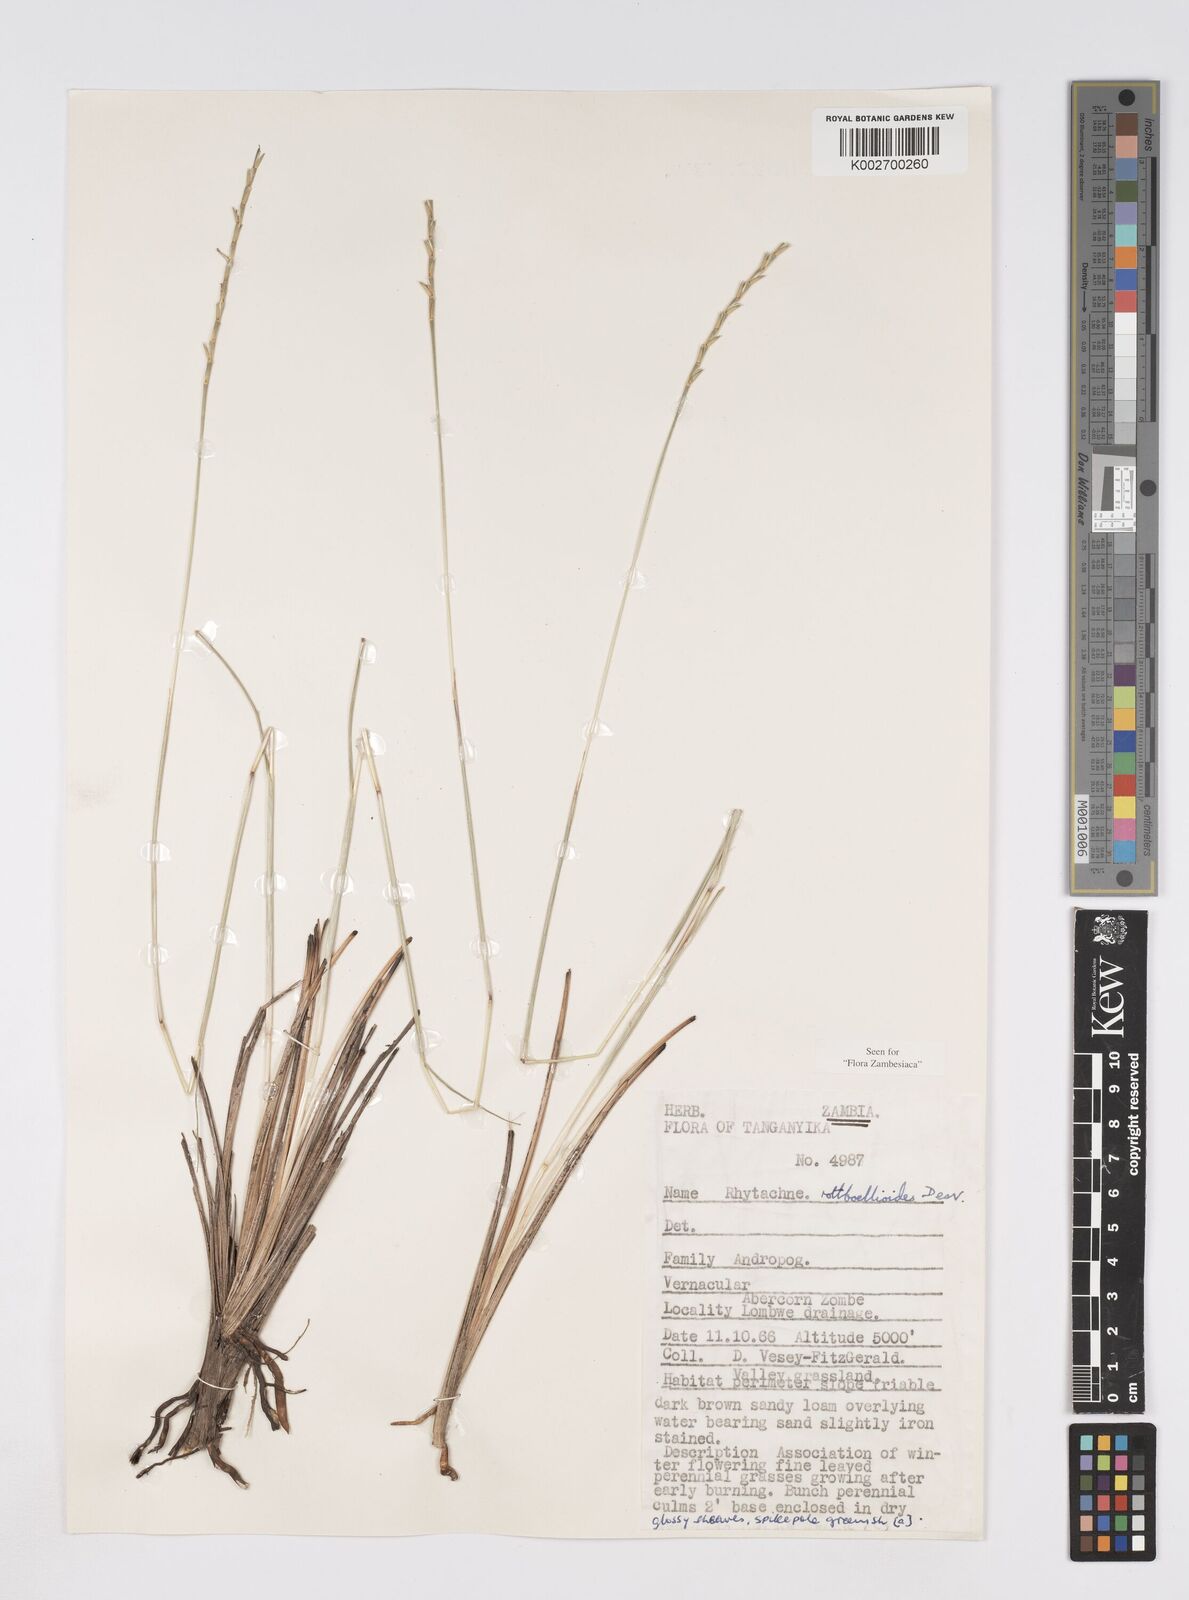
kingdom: Plantae
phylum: Tracheophyta
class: Liliopsida
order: Poales
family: Poaceae
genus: Rhytachne
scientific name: Rhytachne rottboellioides
